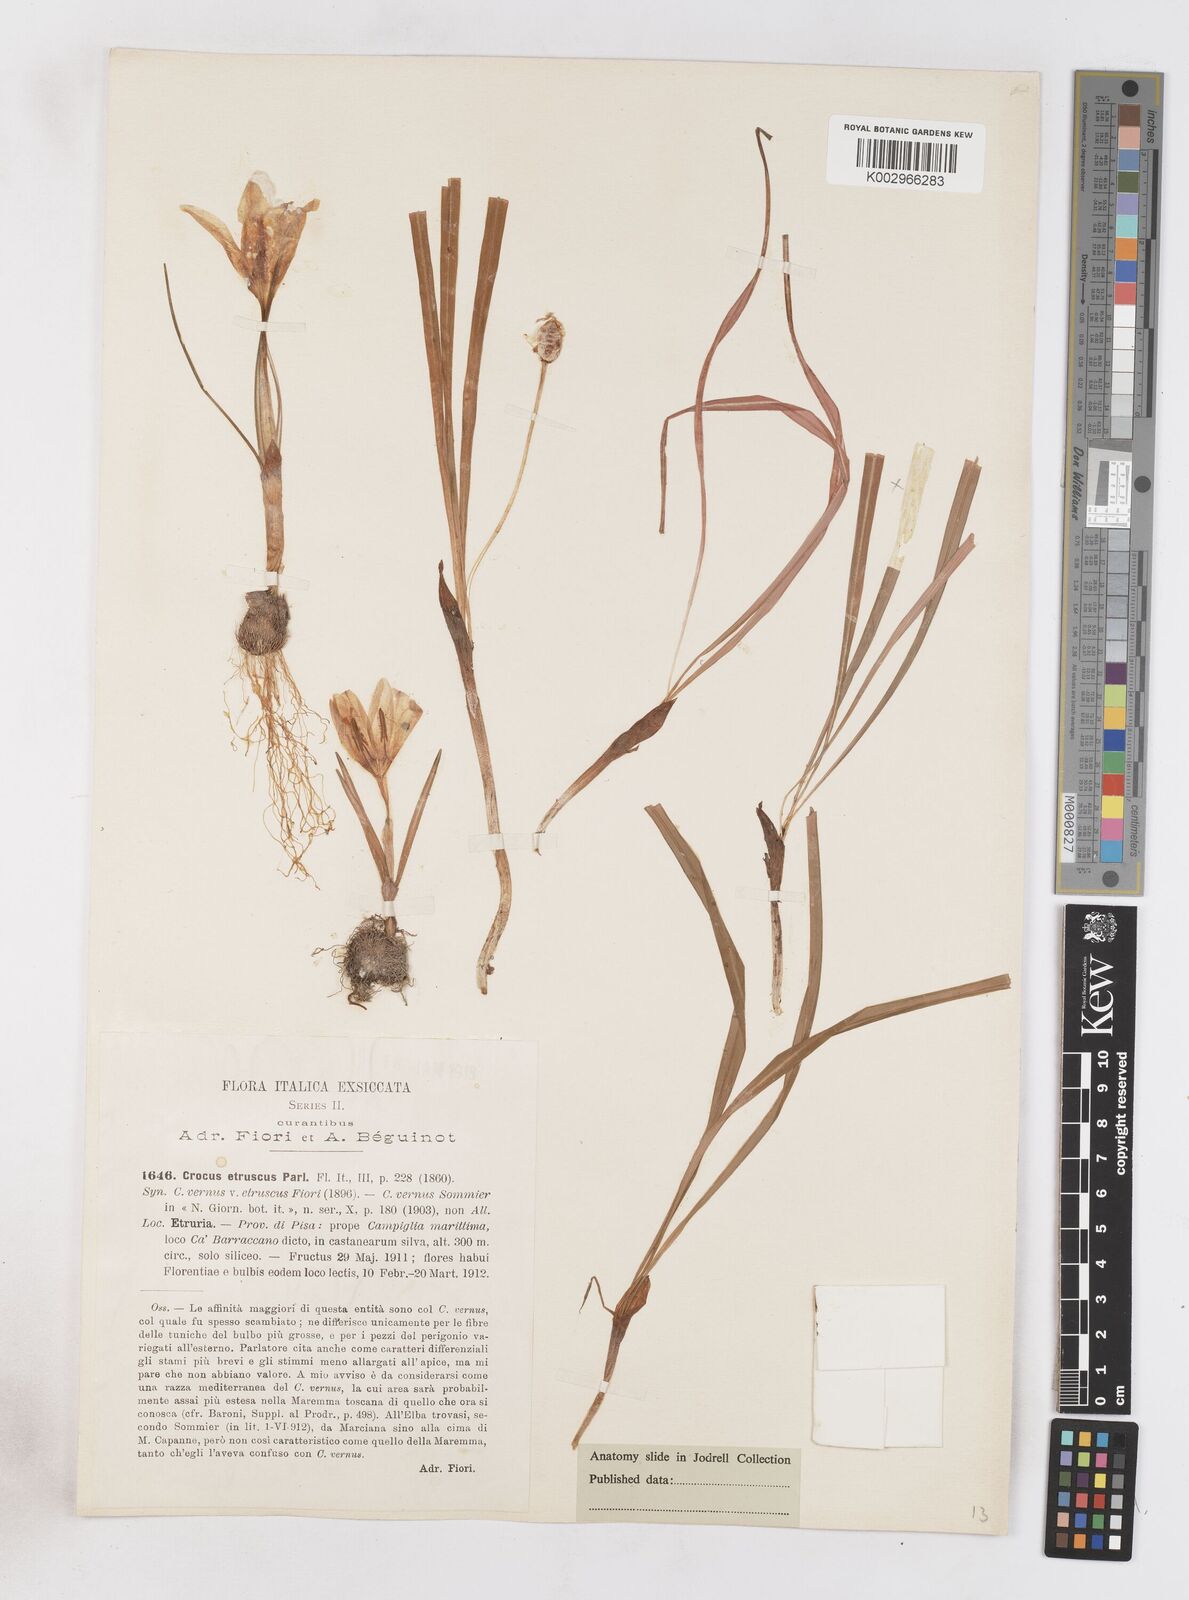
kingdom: Plantae
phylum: Tracheophyta
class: Liliopsida
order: Asparagales
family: Iridaceae
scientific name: Iridaceae
